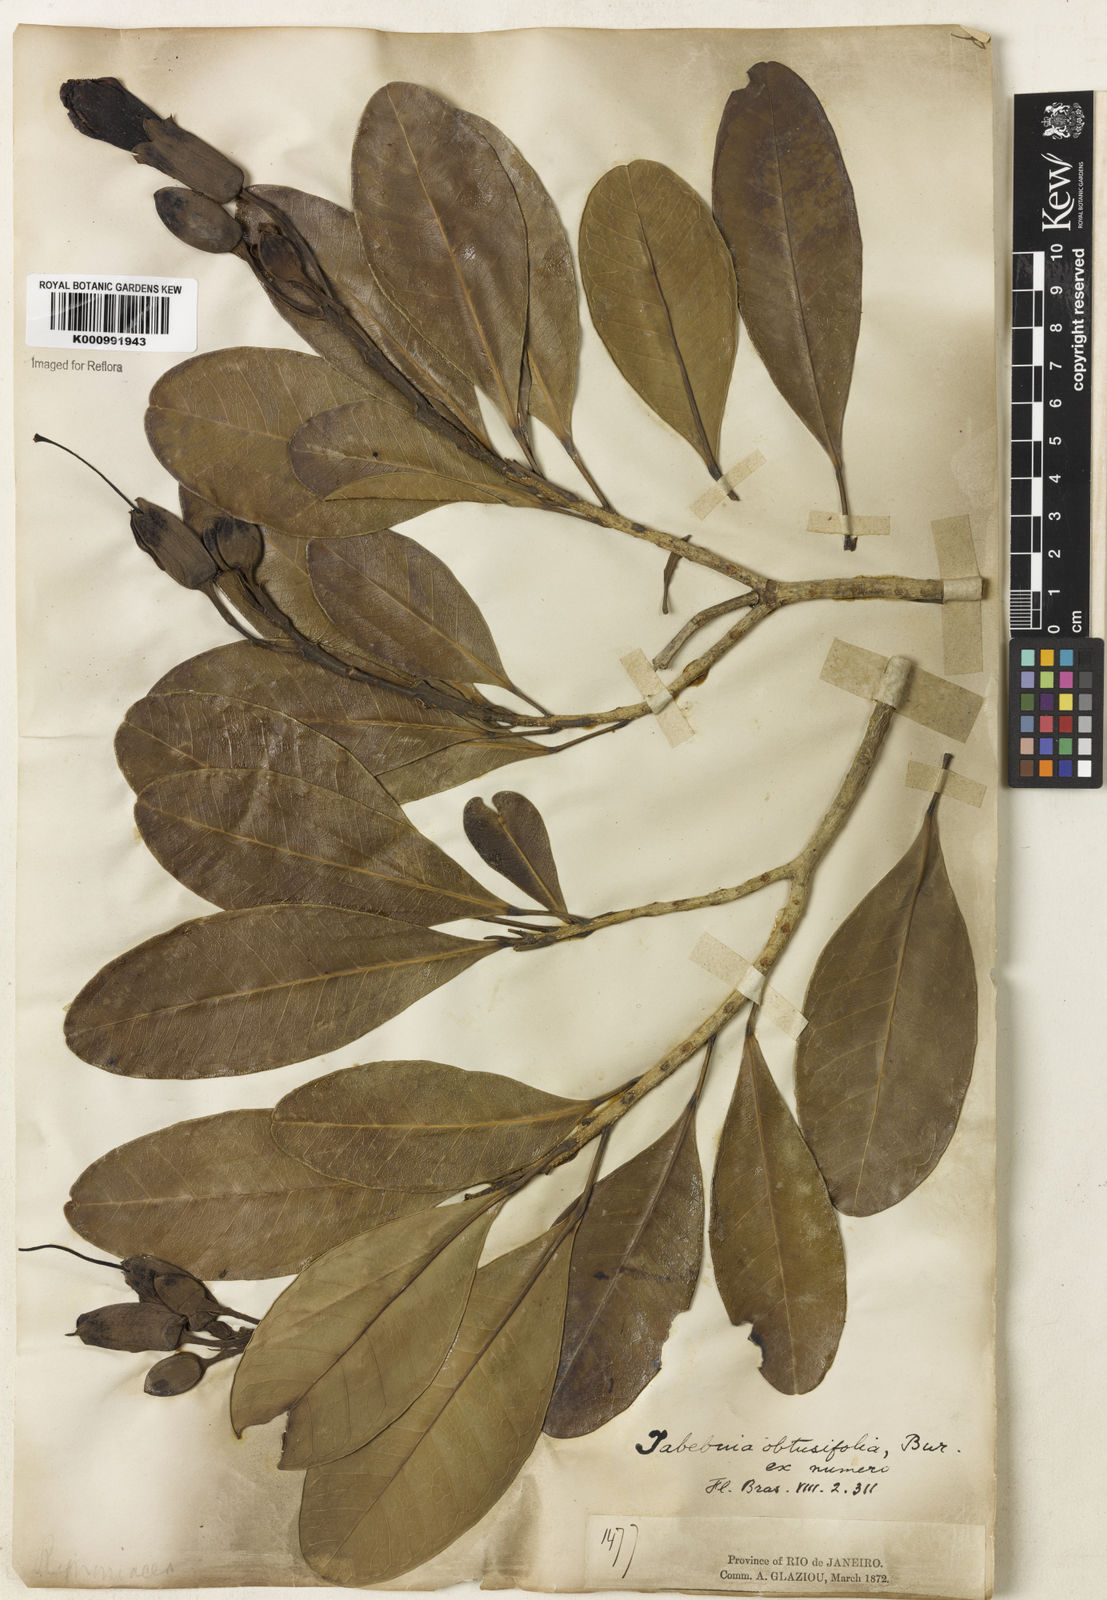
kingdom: Plantae
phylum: Tracheophyta
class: Magnoliopsida
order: Lamiales
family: Bignoniaceae
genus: Tabebuia
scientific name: Tabebuia obtusifolia
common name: Guadeloupe trumpet-tree
